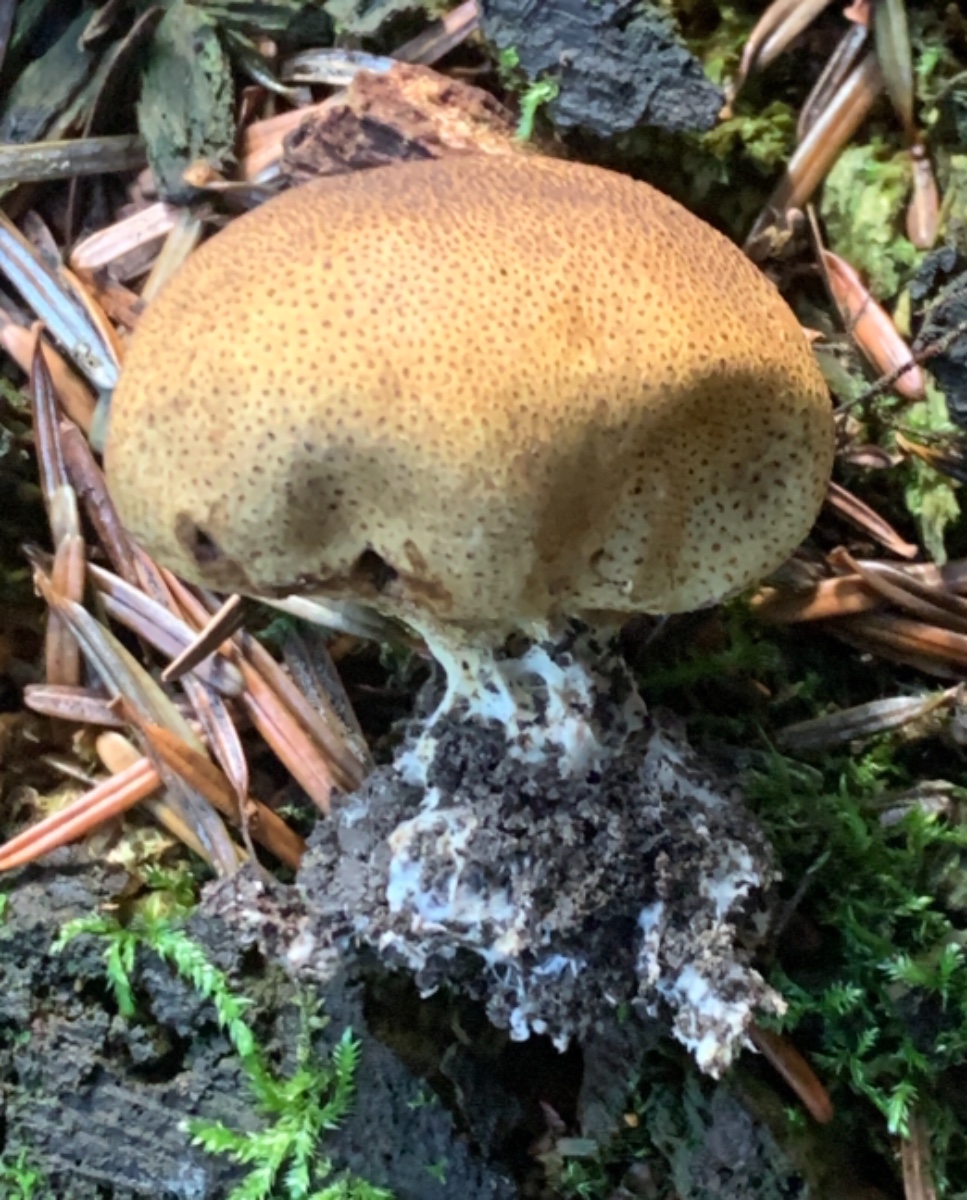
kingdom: Fungi
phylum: Basidiomycota
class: Agaricomycetes
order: Boletales
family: Sclerodermataceae
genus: Scleroderma
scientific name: Scleroderma areolatum
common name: plettet bruskbold
